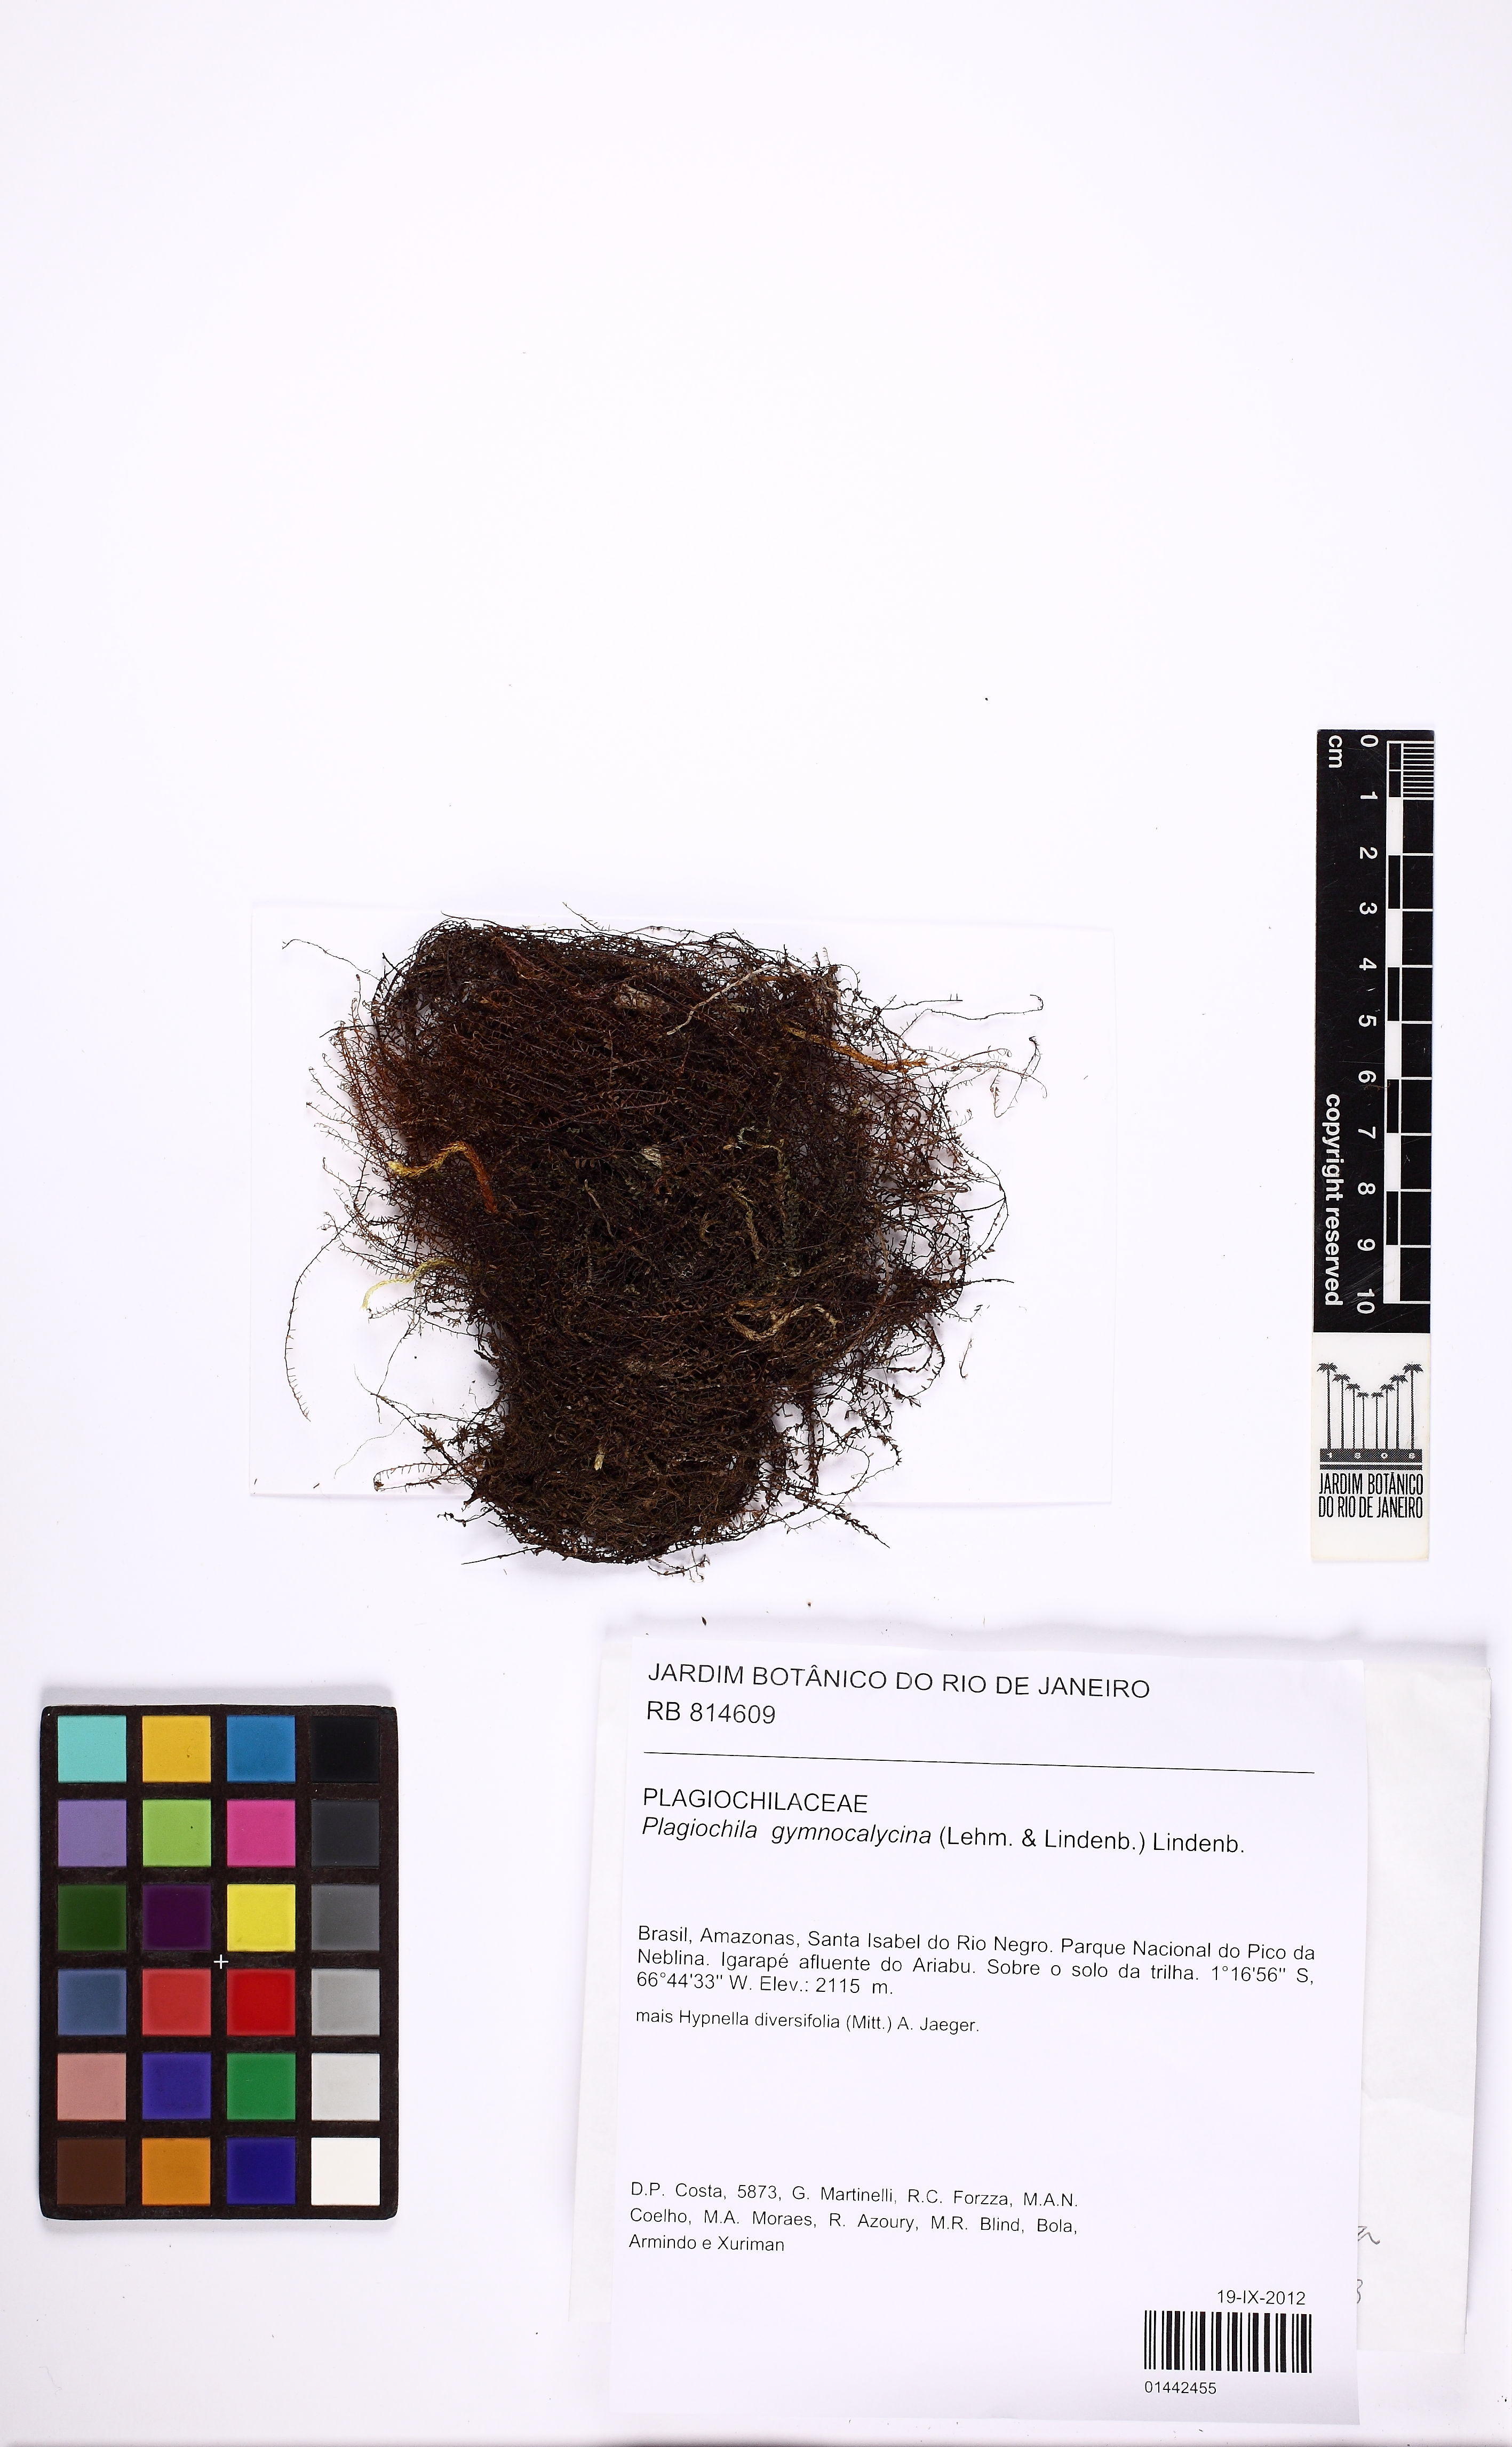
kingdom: Plantae
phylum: Marchantiophyta
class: Jungermanniopsida
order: Jungermanniales
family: Plagiochilaceae
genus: Plagiochila
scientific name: Plagiochila gymnocalycina
